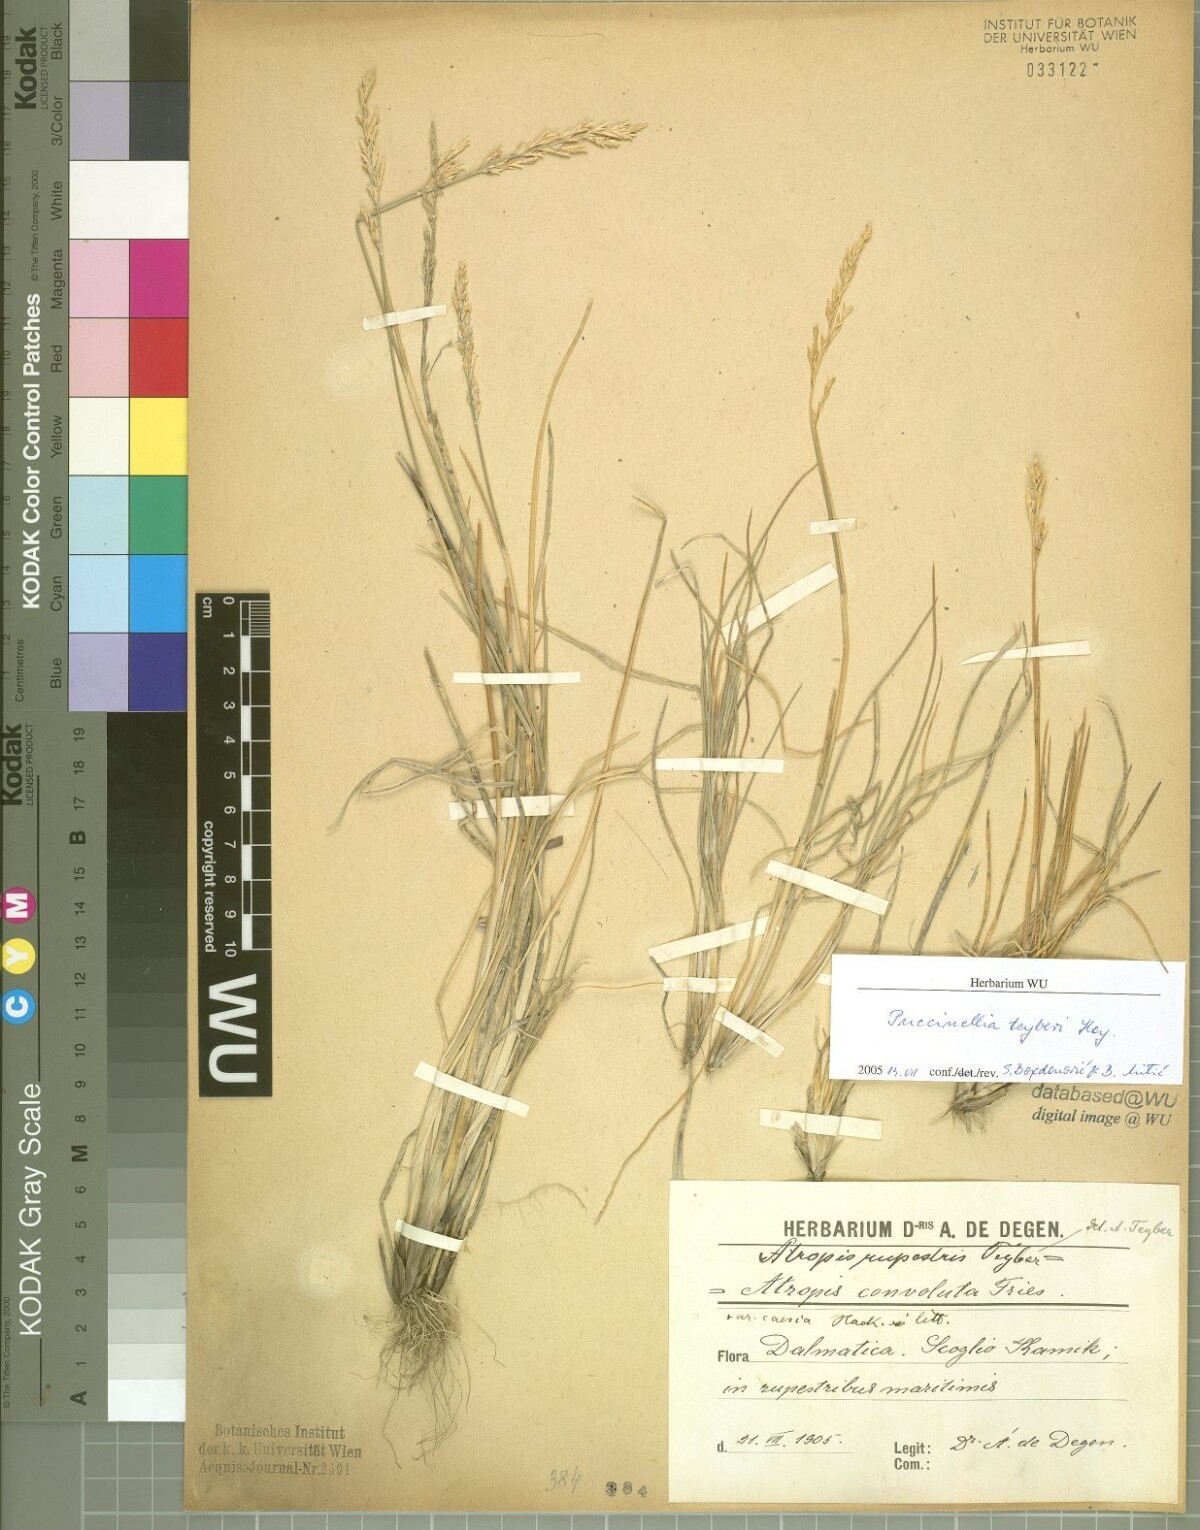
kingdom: Plantae
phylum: Tracheophyta
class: Liliopsida
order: Poales
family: Poaceae
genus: Puccinellia
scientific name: Puccinellia festuciformis
